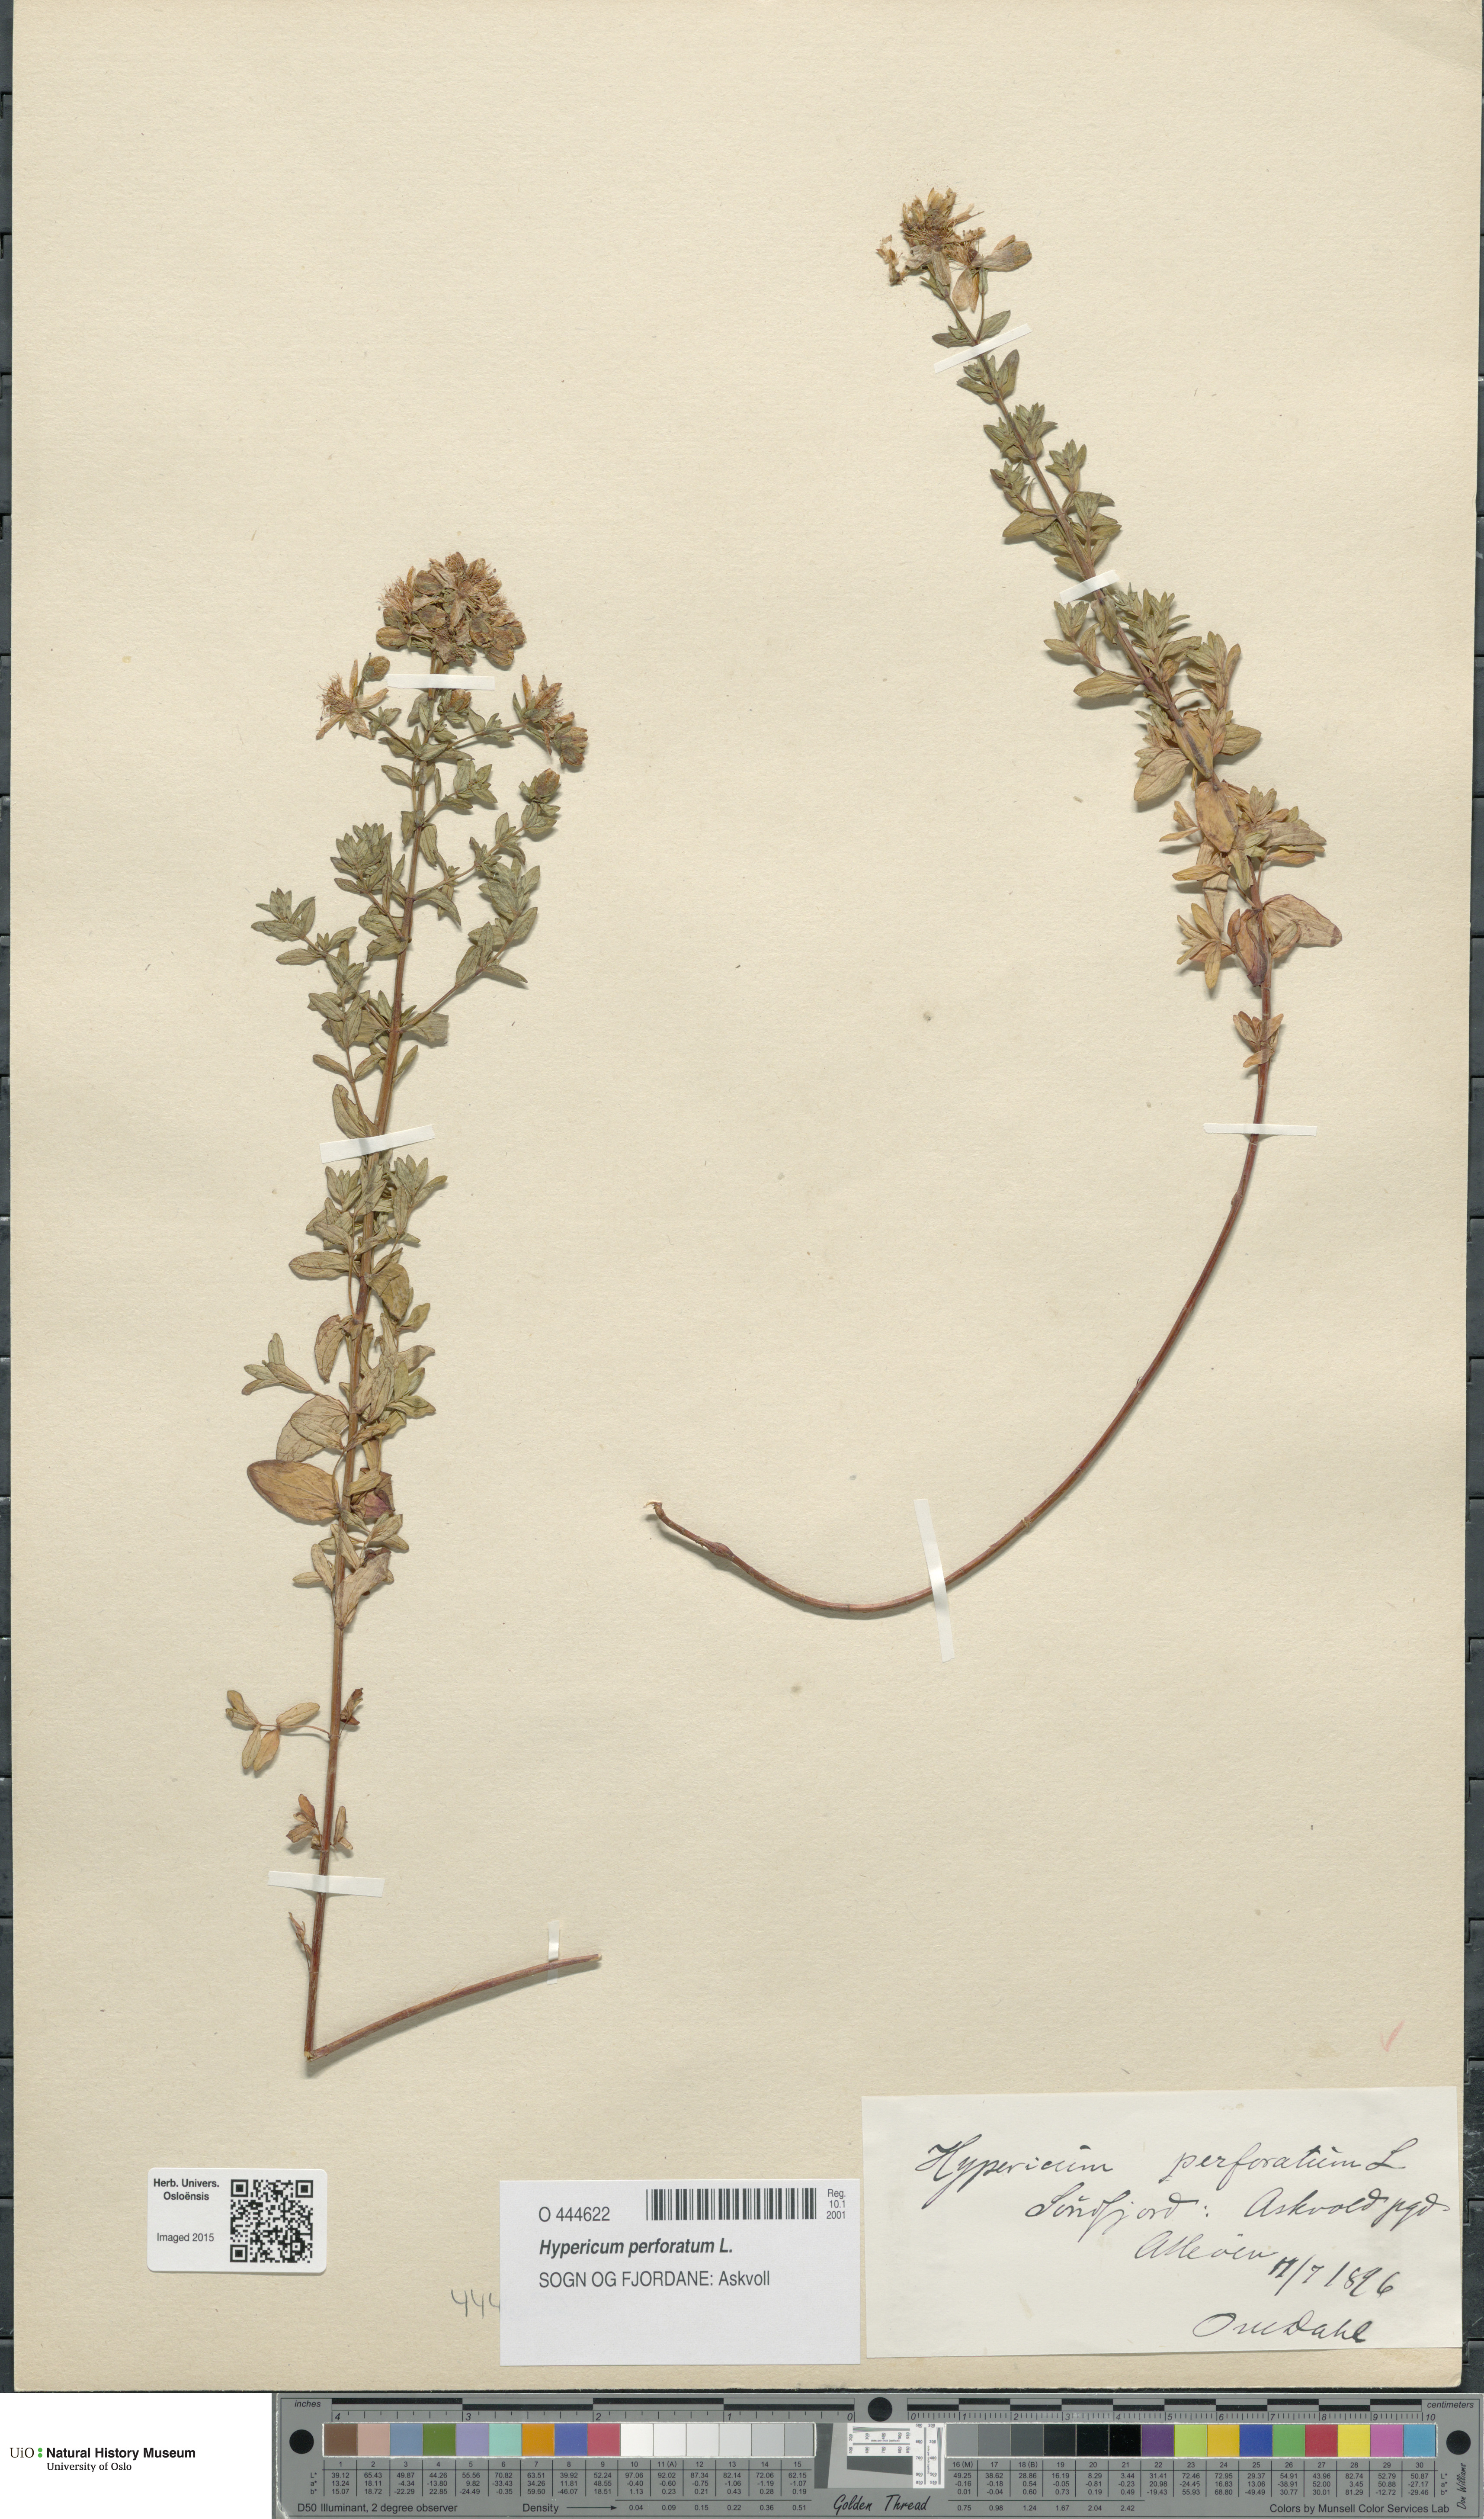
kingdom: Plantae
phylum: Tracheophyta
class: Magnoliopsida
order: Malpighiales
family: Hypericaceae
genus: Hypericum
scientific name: Hypericum perforatum
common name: Common st. johnswort
